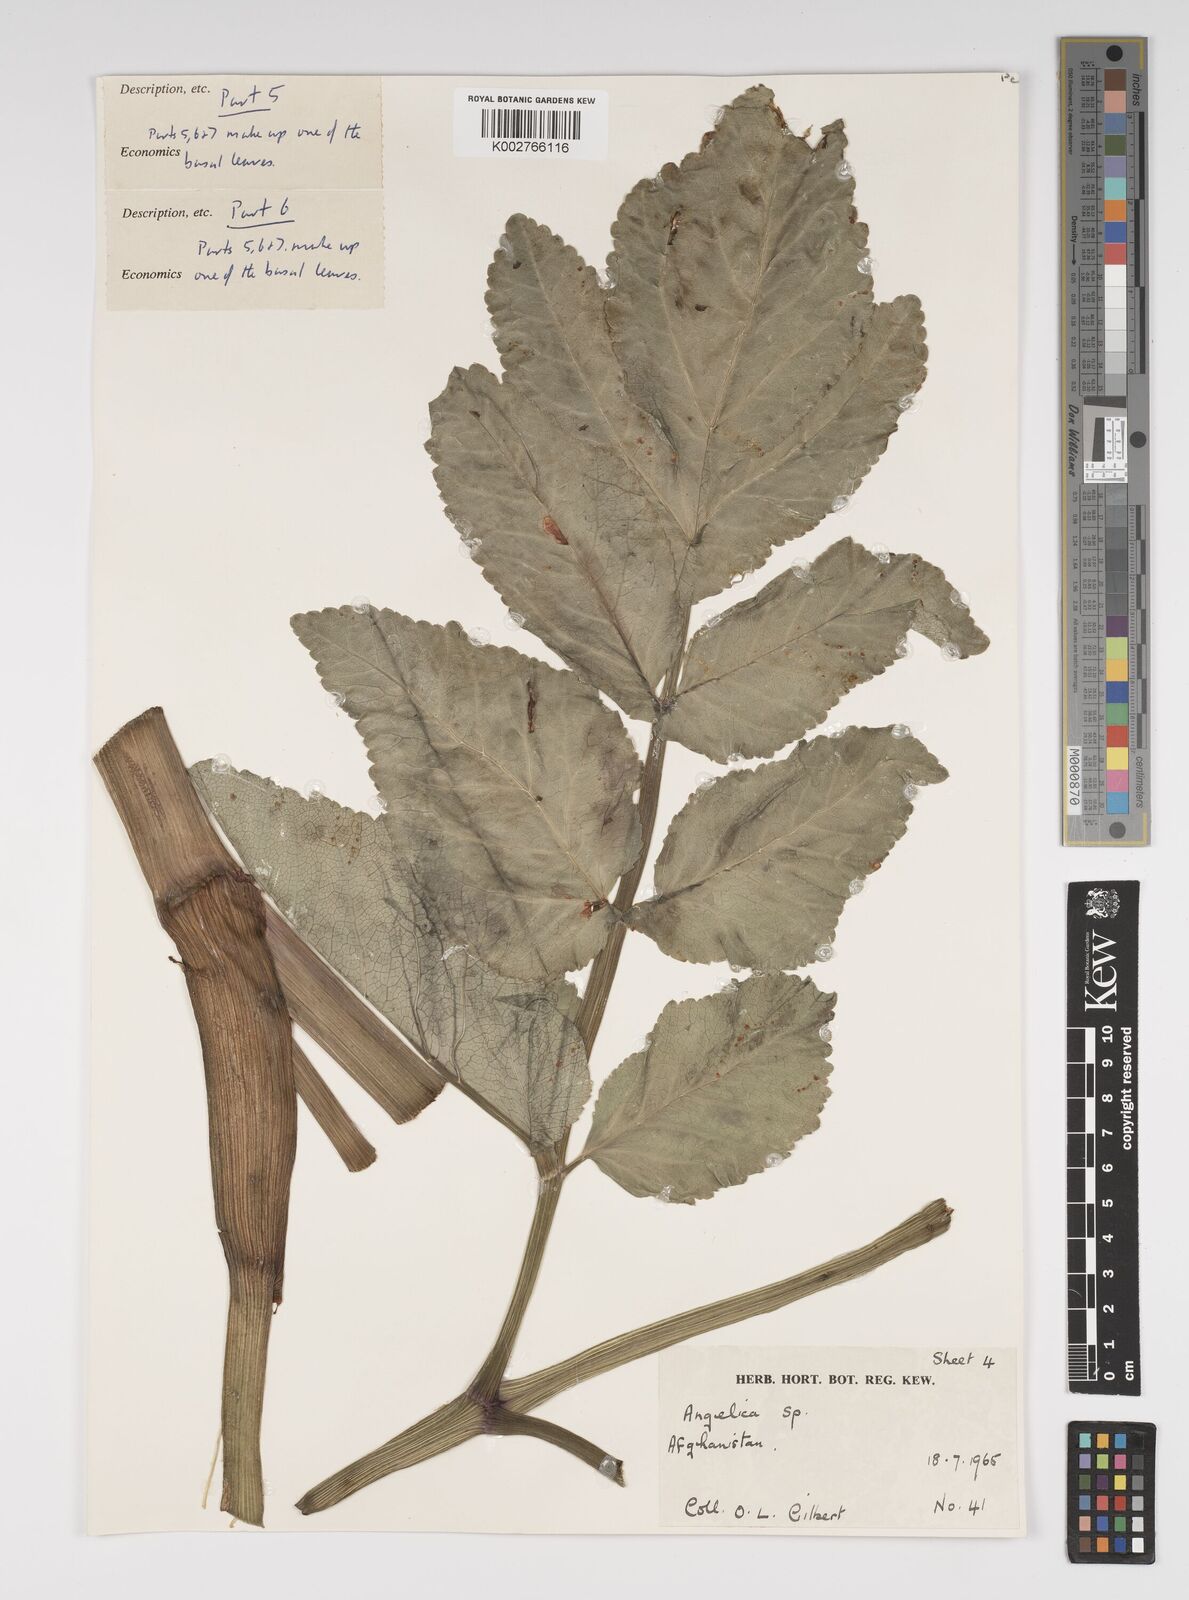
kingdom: Plantae
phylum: Tracheophyta
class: Magnoliopsida
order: Apiales
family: Apiaceae
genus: Angelica
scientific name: Angelica
